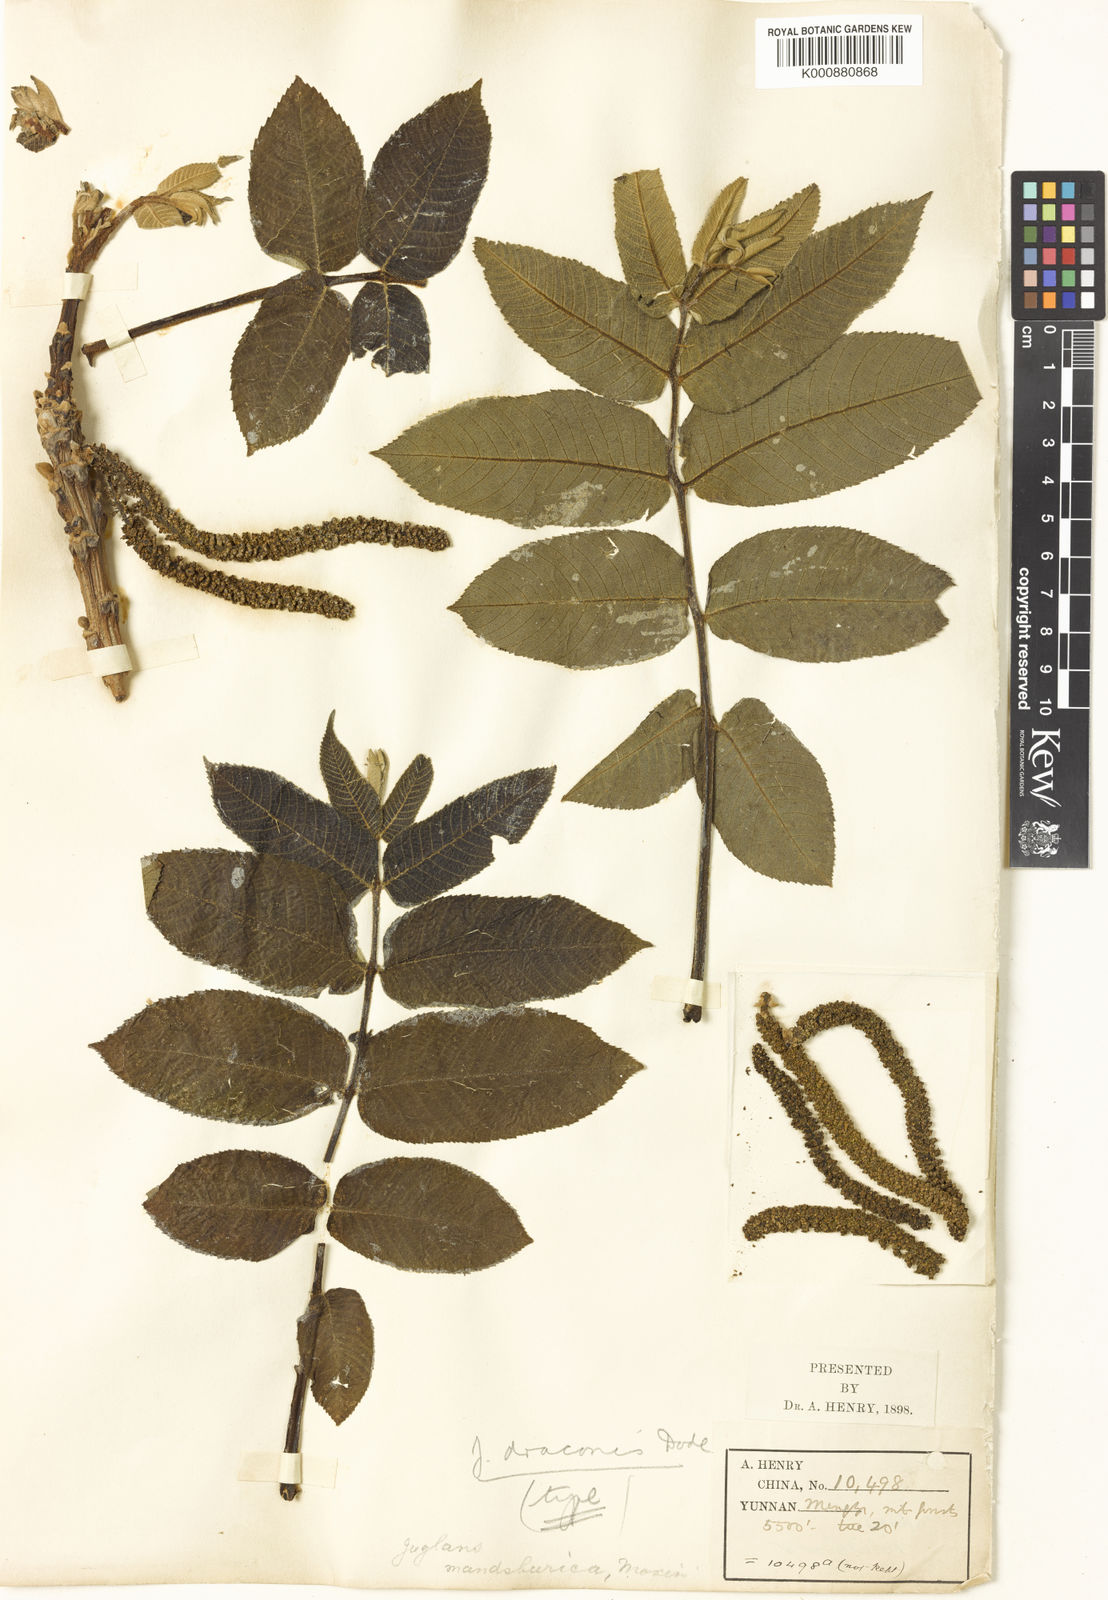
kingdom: Plantae
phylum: Tracheophyta
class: Magnoliopsida
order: Fagales
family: Juglandaceae
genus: Juglans
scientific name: Juglans mandshurica
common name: Manchurian walnut
